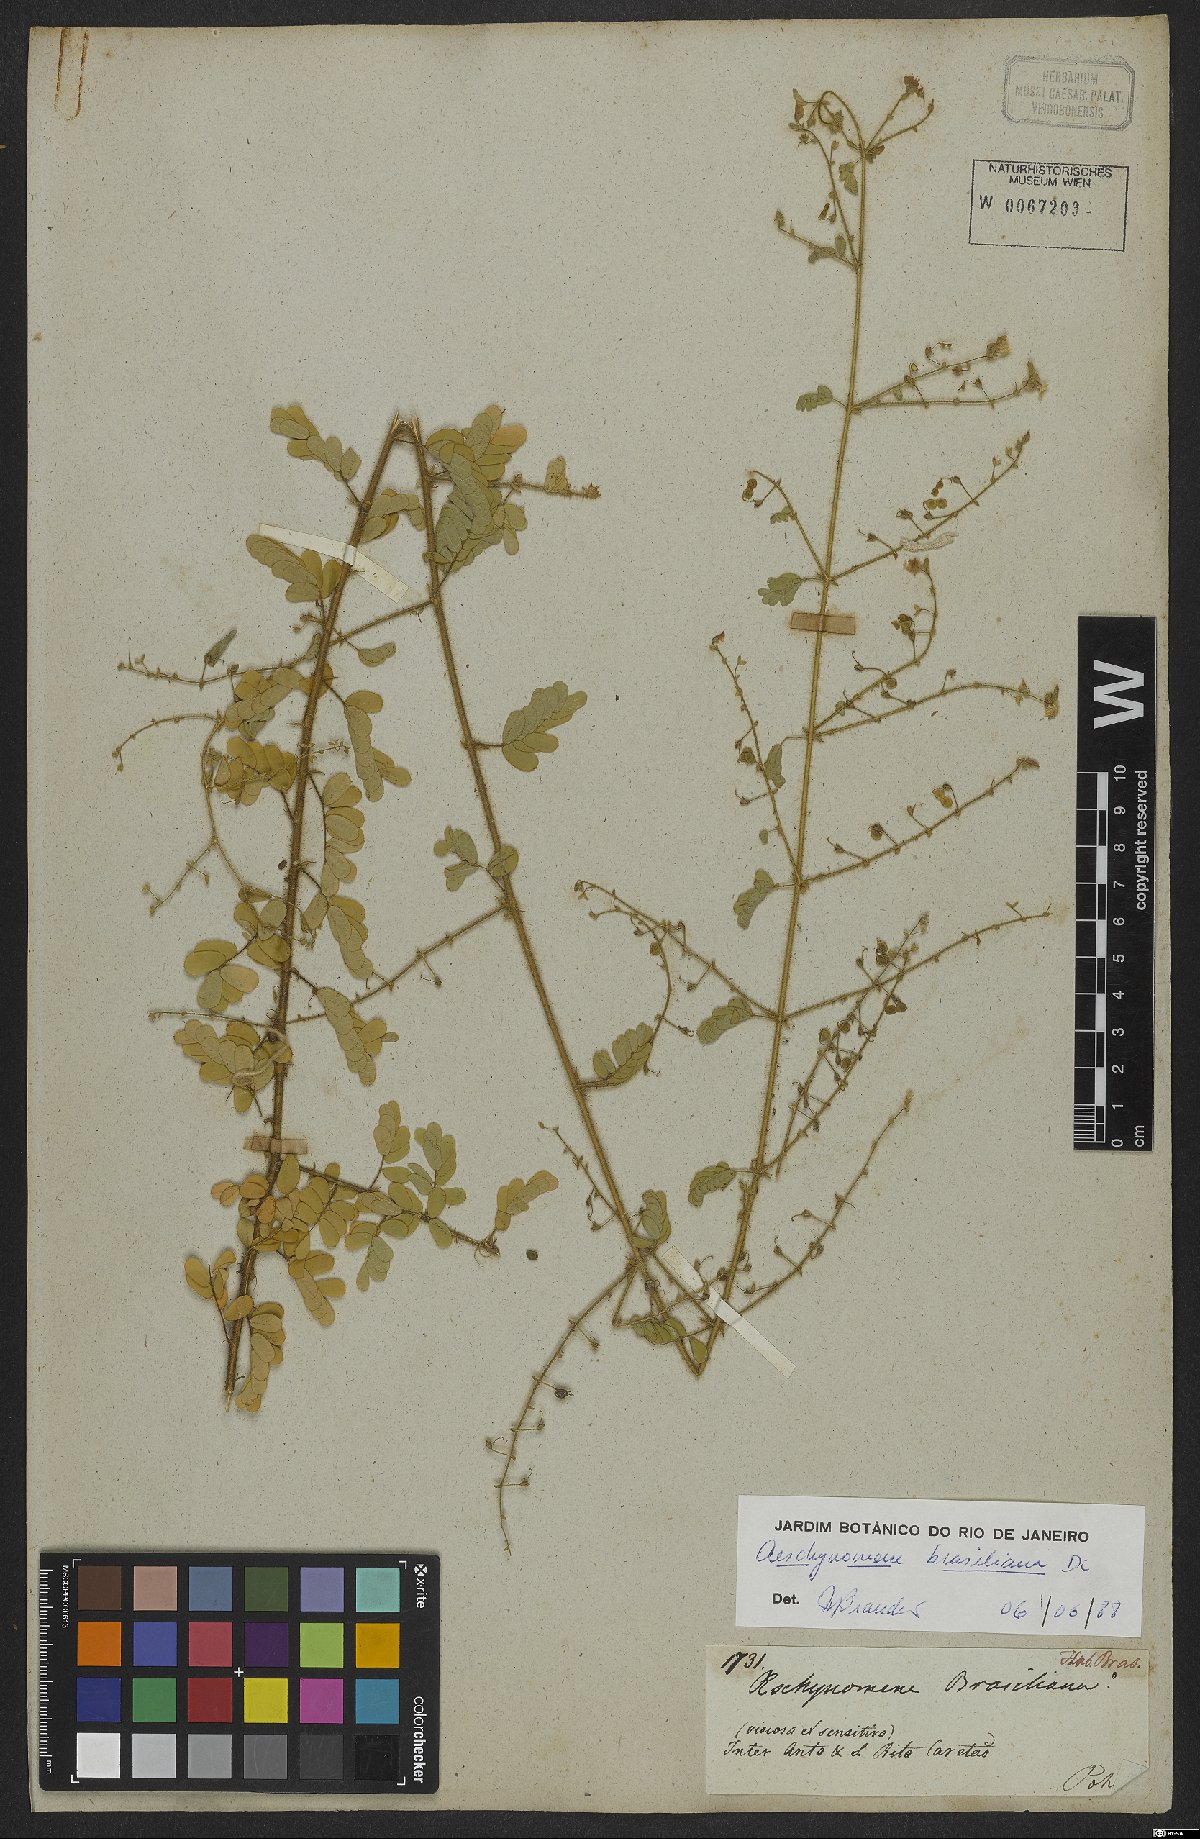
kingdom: Plantae
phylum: Tracheophyta
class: Magnoliopsida
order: Fabales
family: Fabaceae
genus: Ctenodon
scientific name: Ctenodon brasilianus
